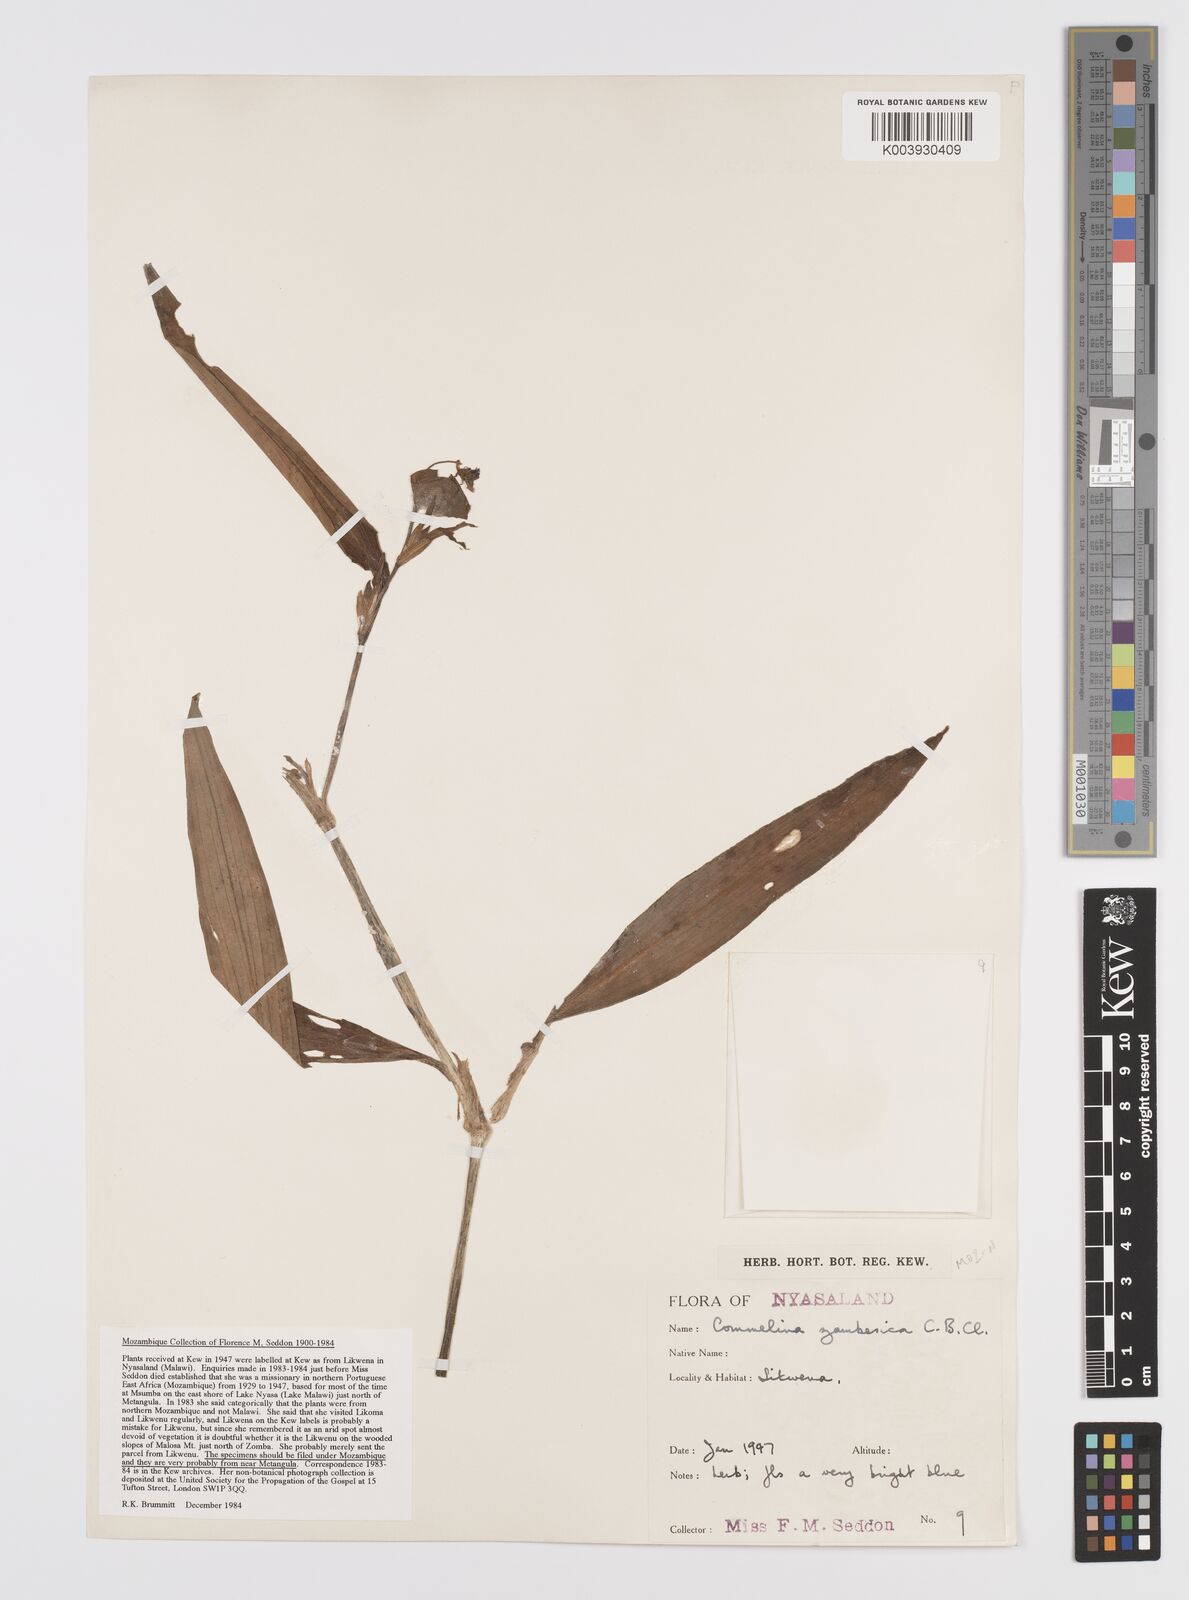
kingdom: Plantae
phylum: Tracheophyta
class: Liliopsida
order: Commelinales
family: Commelinaceae
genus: Commelina
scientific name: Commelina zambesica
